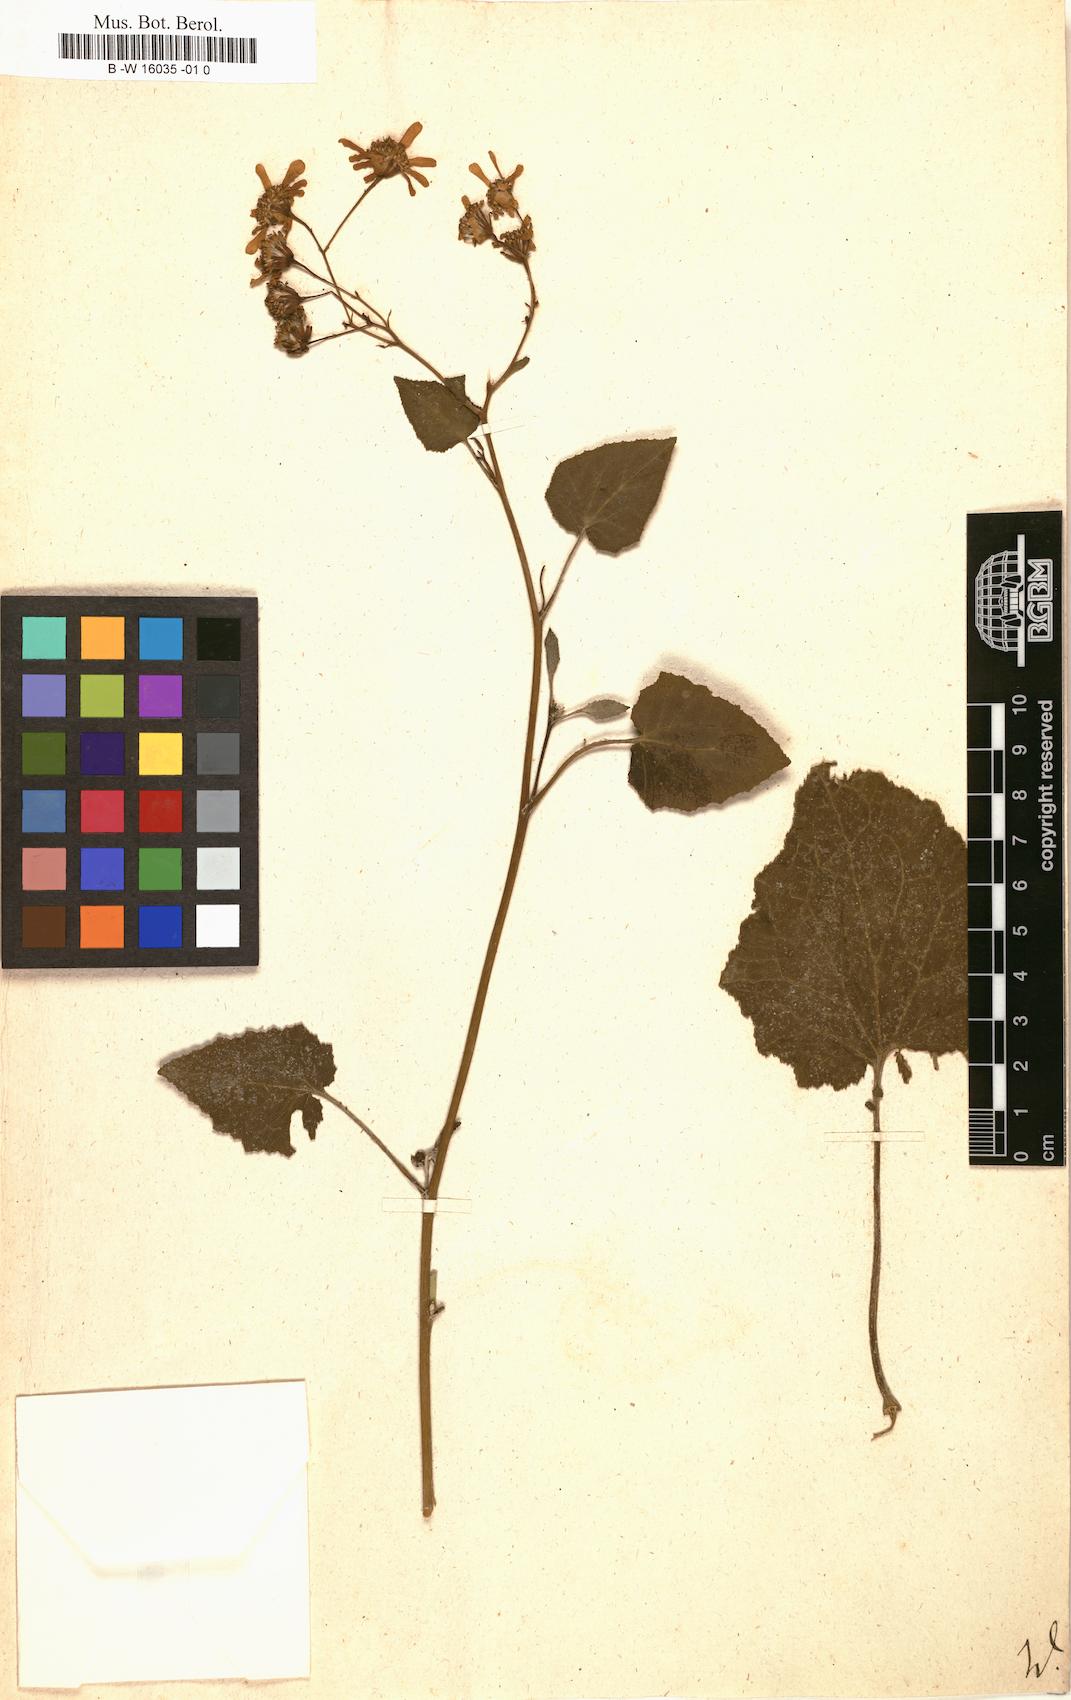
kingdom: Plantae
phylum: Tracheophyta
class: Magnoliopsida
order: Asterales
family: Asteraceae
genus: Cineraria
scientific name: Cineraria
